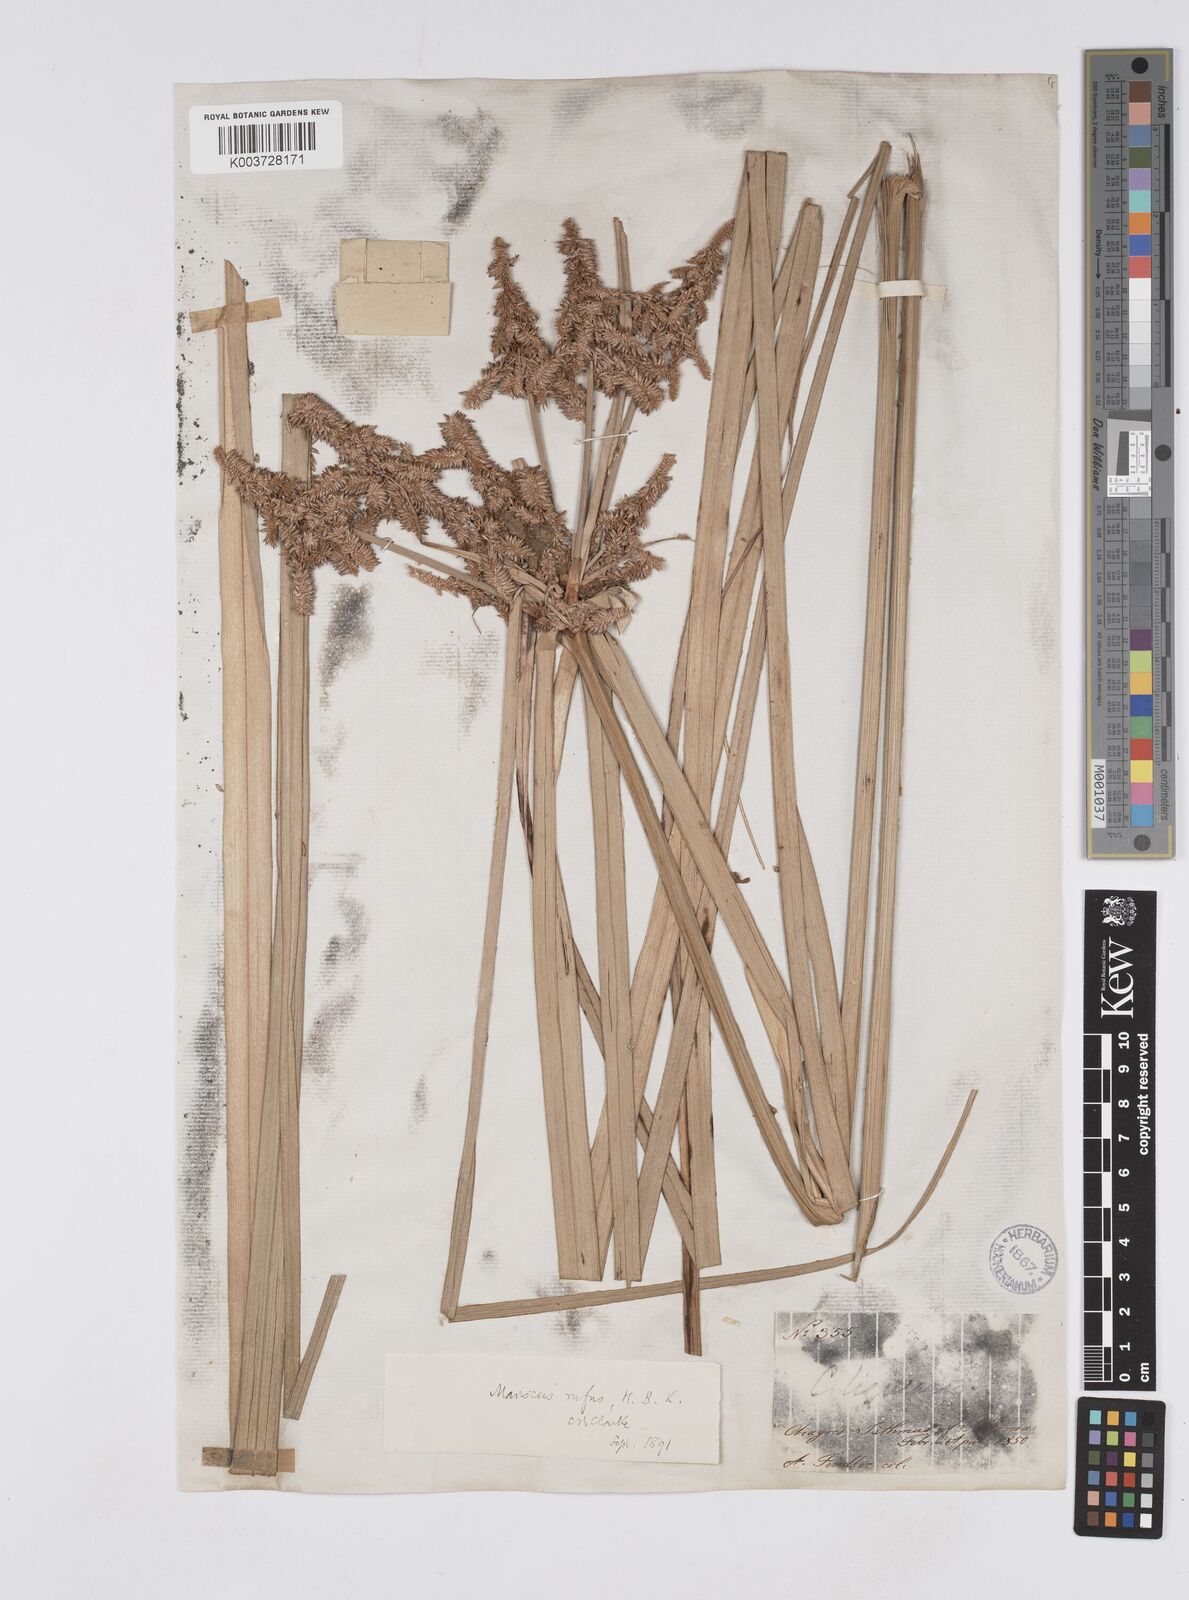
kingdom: Plantae
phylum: Tracheophyta
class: Liliopsida
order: Poales
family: Cyperaceae
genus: Cyperus
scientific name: Cyperus ligularis
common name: Swamp flat sedge
